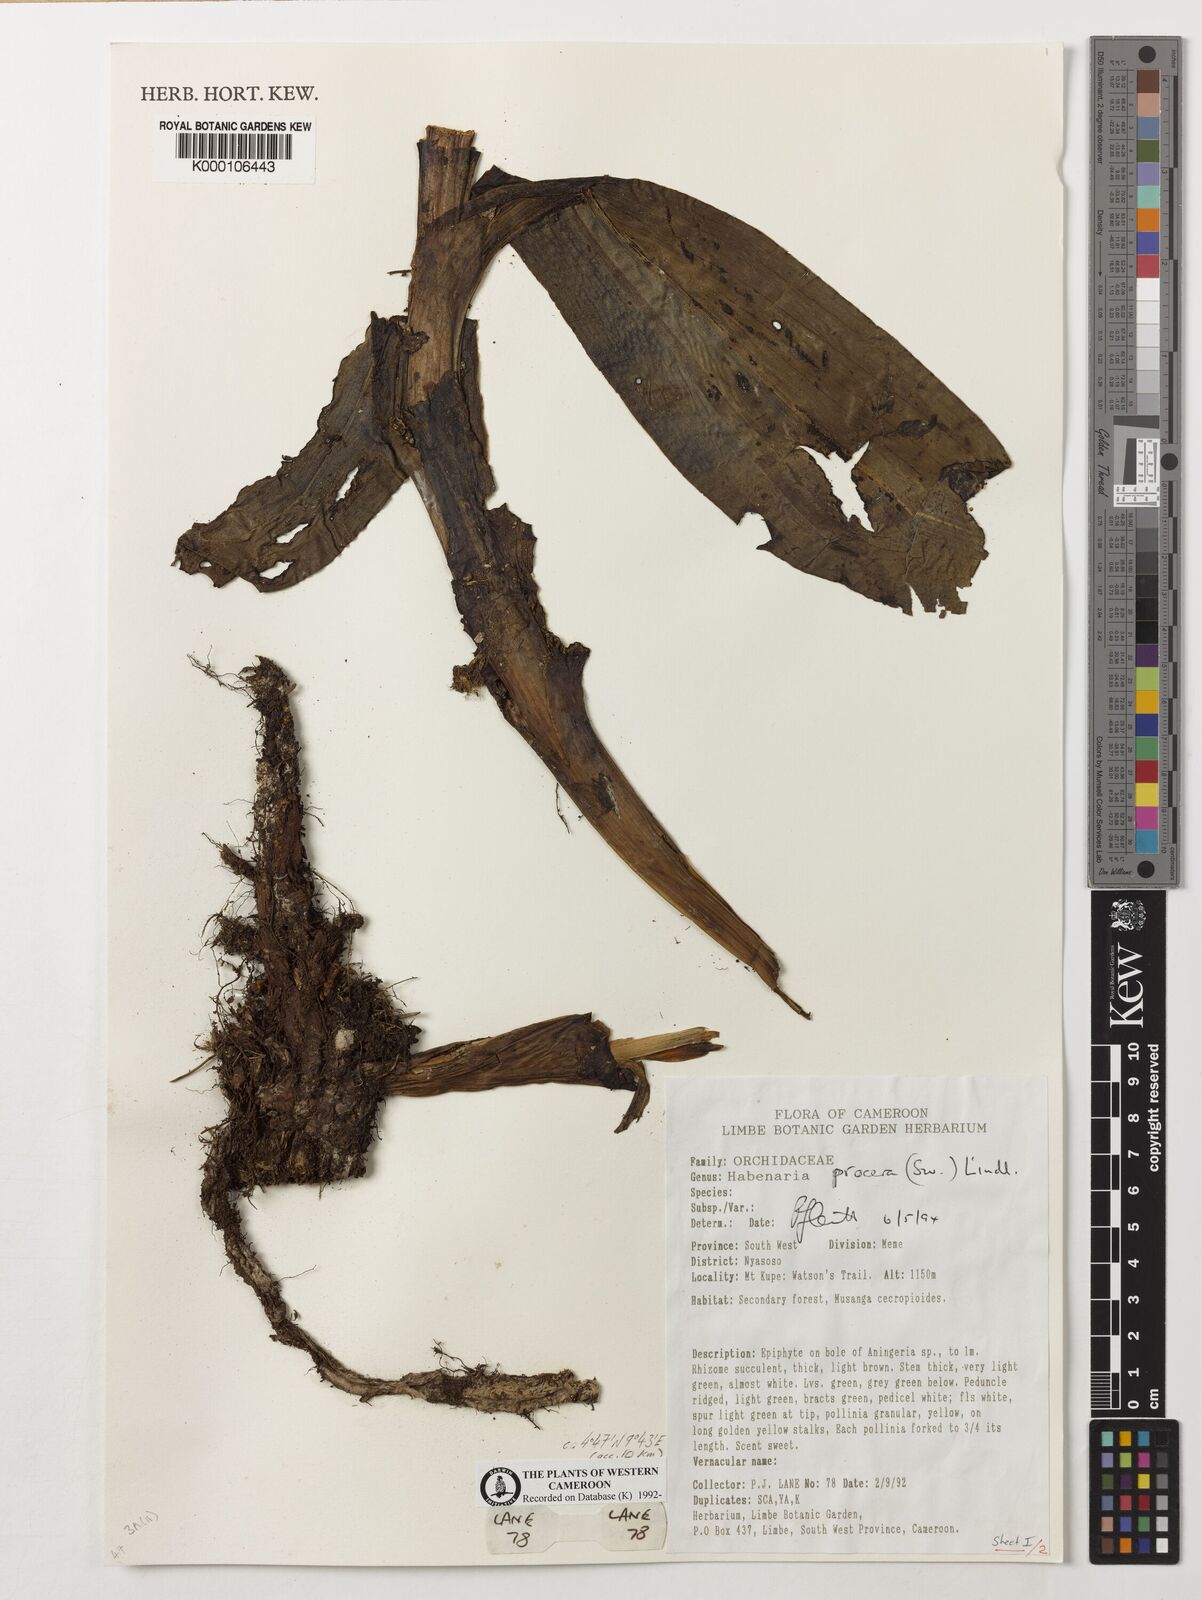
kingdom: Plantae
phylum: Tracheophyta
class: Liliopsida
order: Asparagales
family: Orchidaceae
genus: Habenaria
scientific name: Habenaria procera
